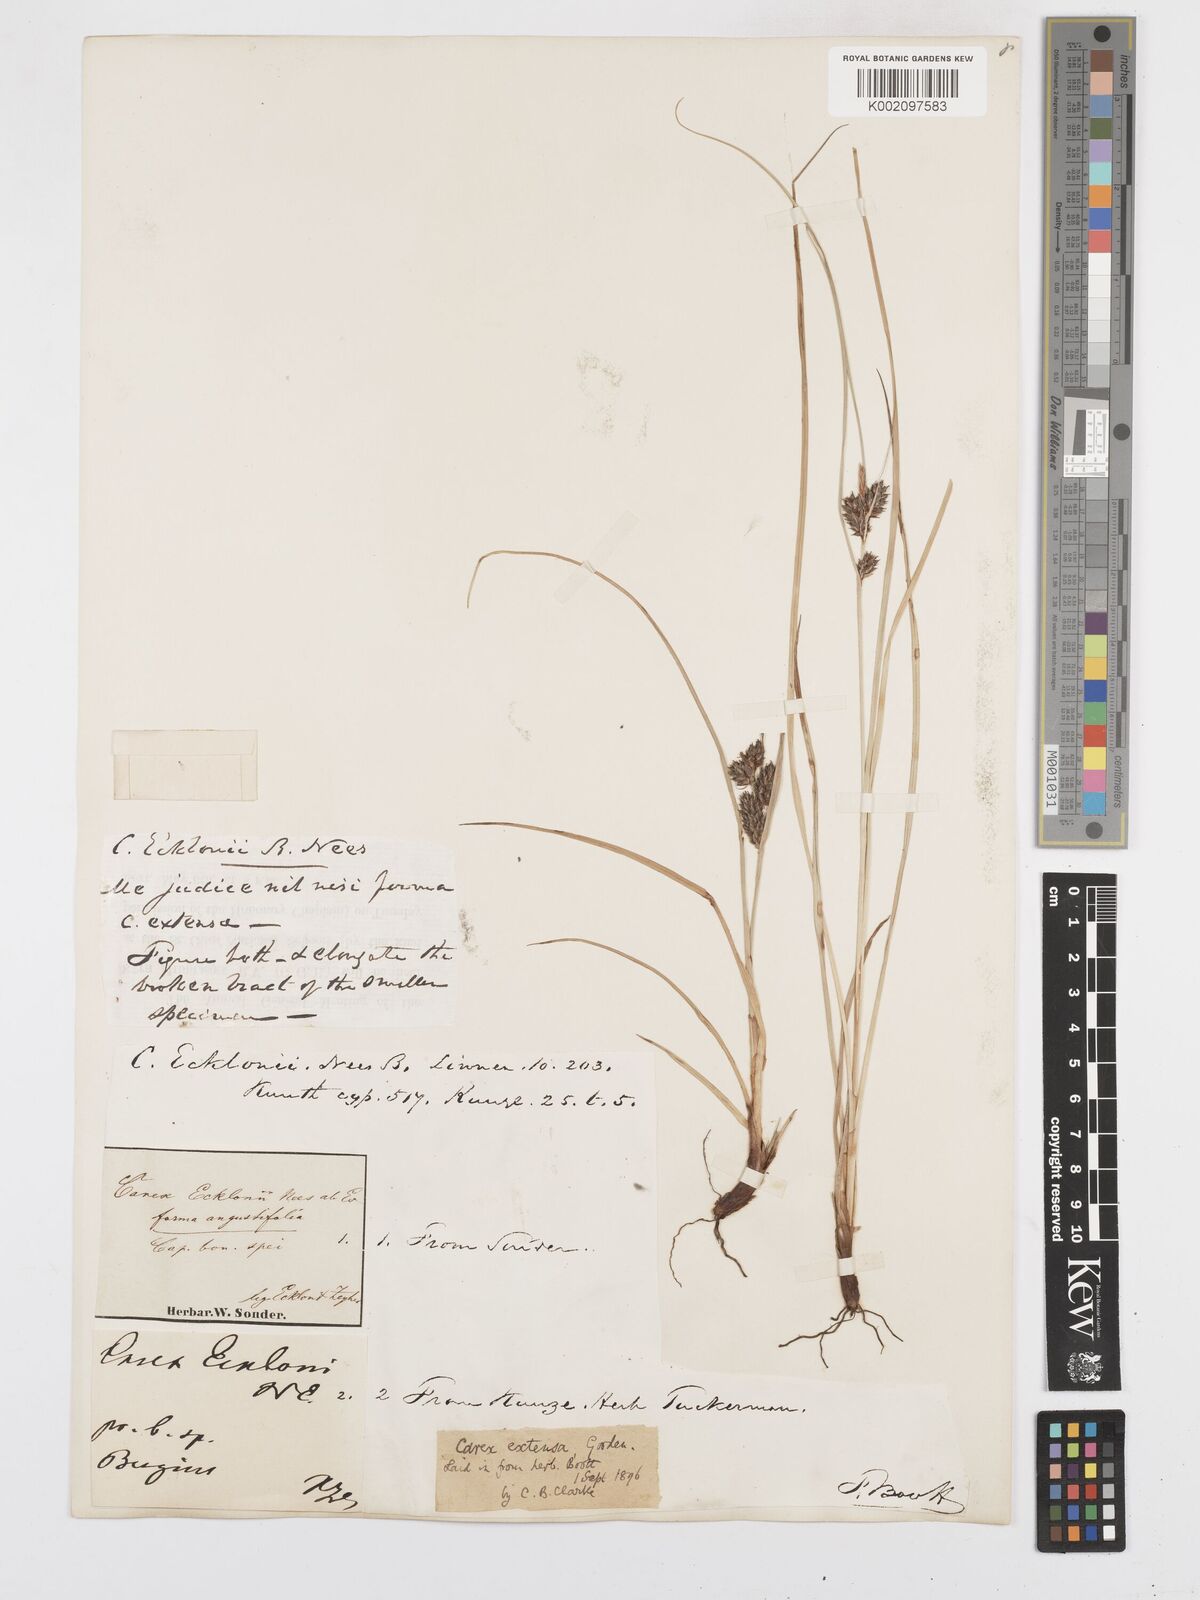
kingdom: Plantae
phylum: Tracheophyta
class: Liliopsida
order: Poales
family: Cyperaceae
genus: Carex
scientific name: Carex extensa
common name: Long-bracted sedge
